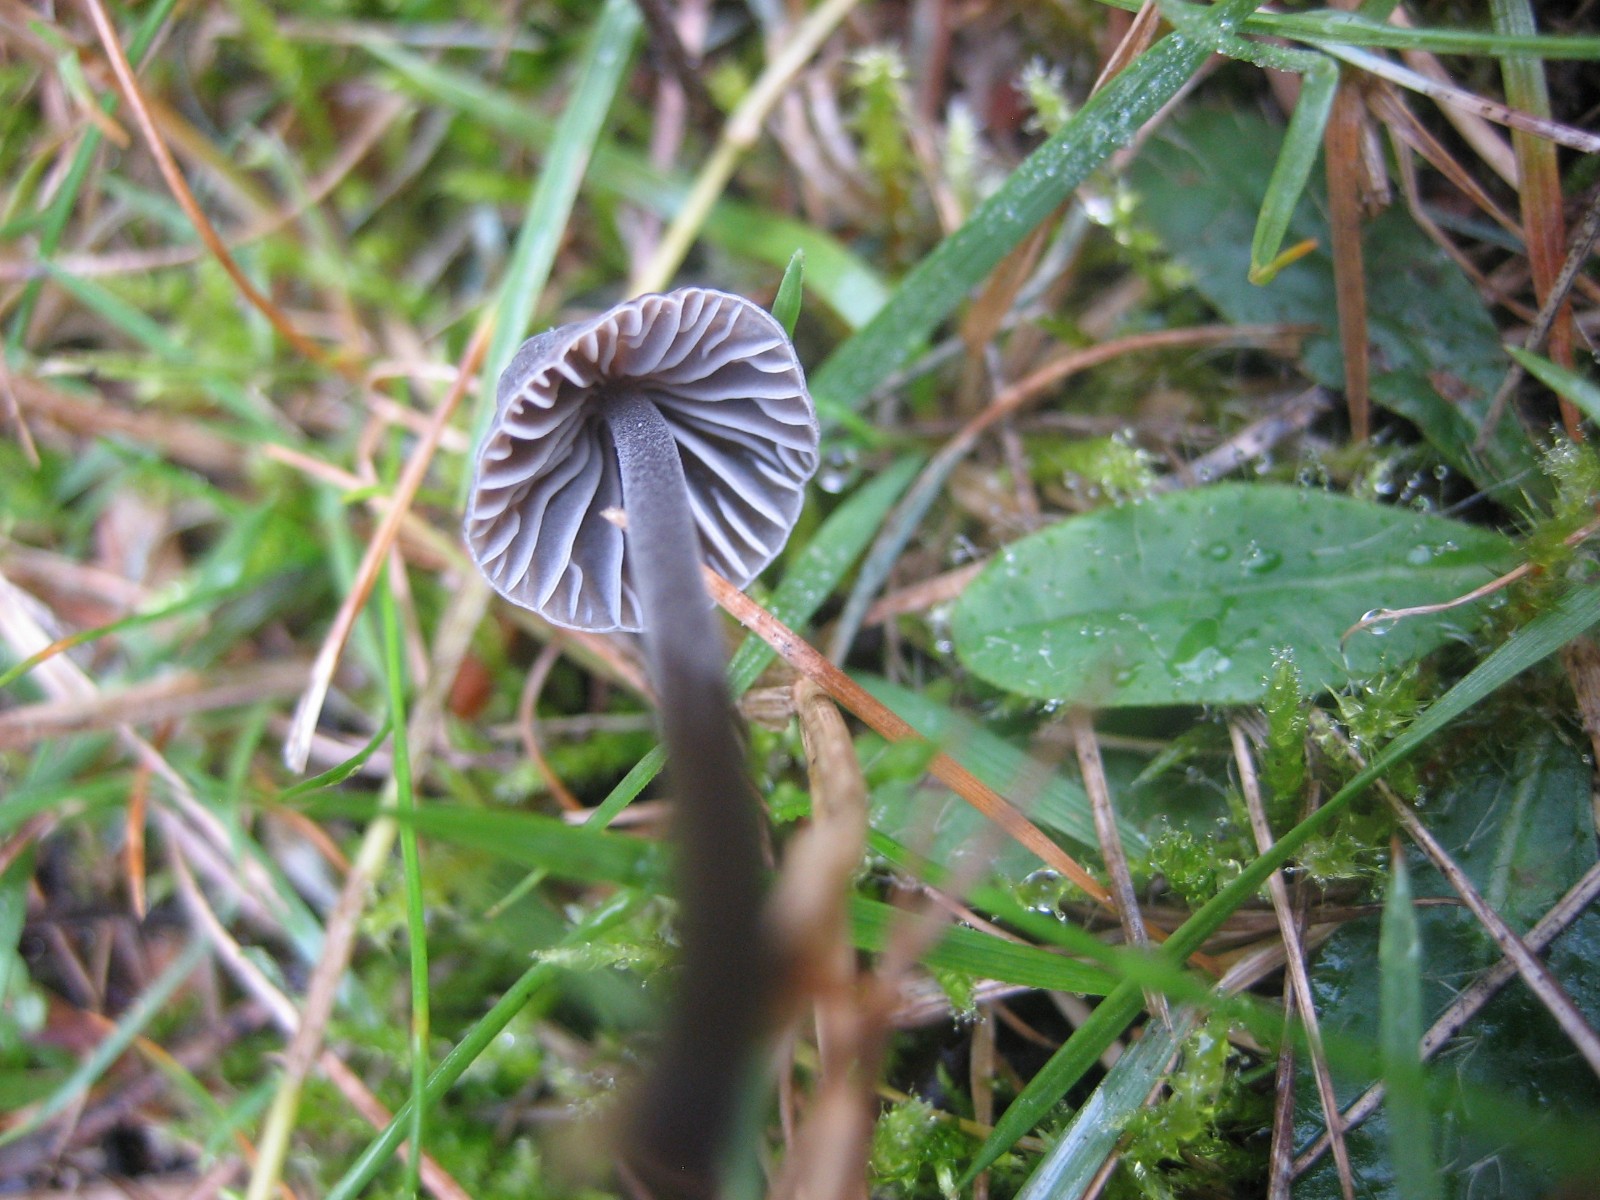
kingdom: Fungi
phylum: Basidiomycota
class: Agaricomycetes
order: Agaricales
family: Mycenaceae
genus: Mycena
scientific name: Mycena galopus
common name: hvidmælket huesvamp
